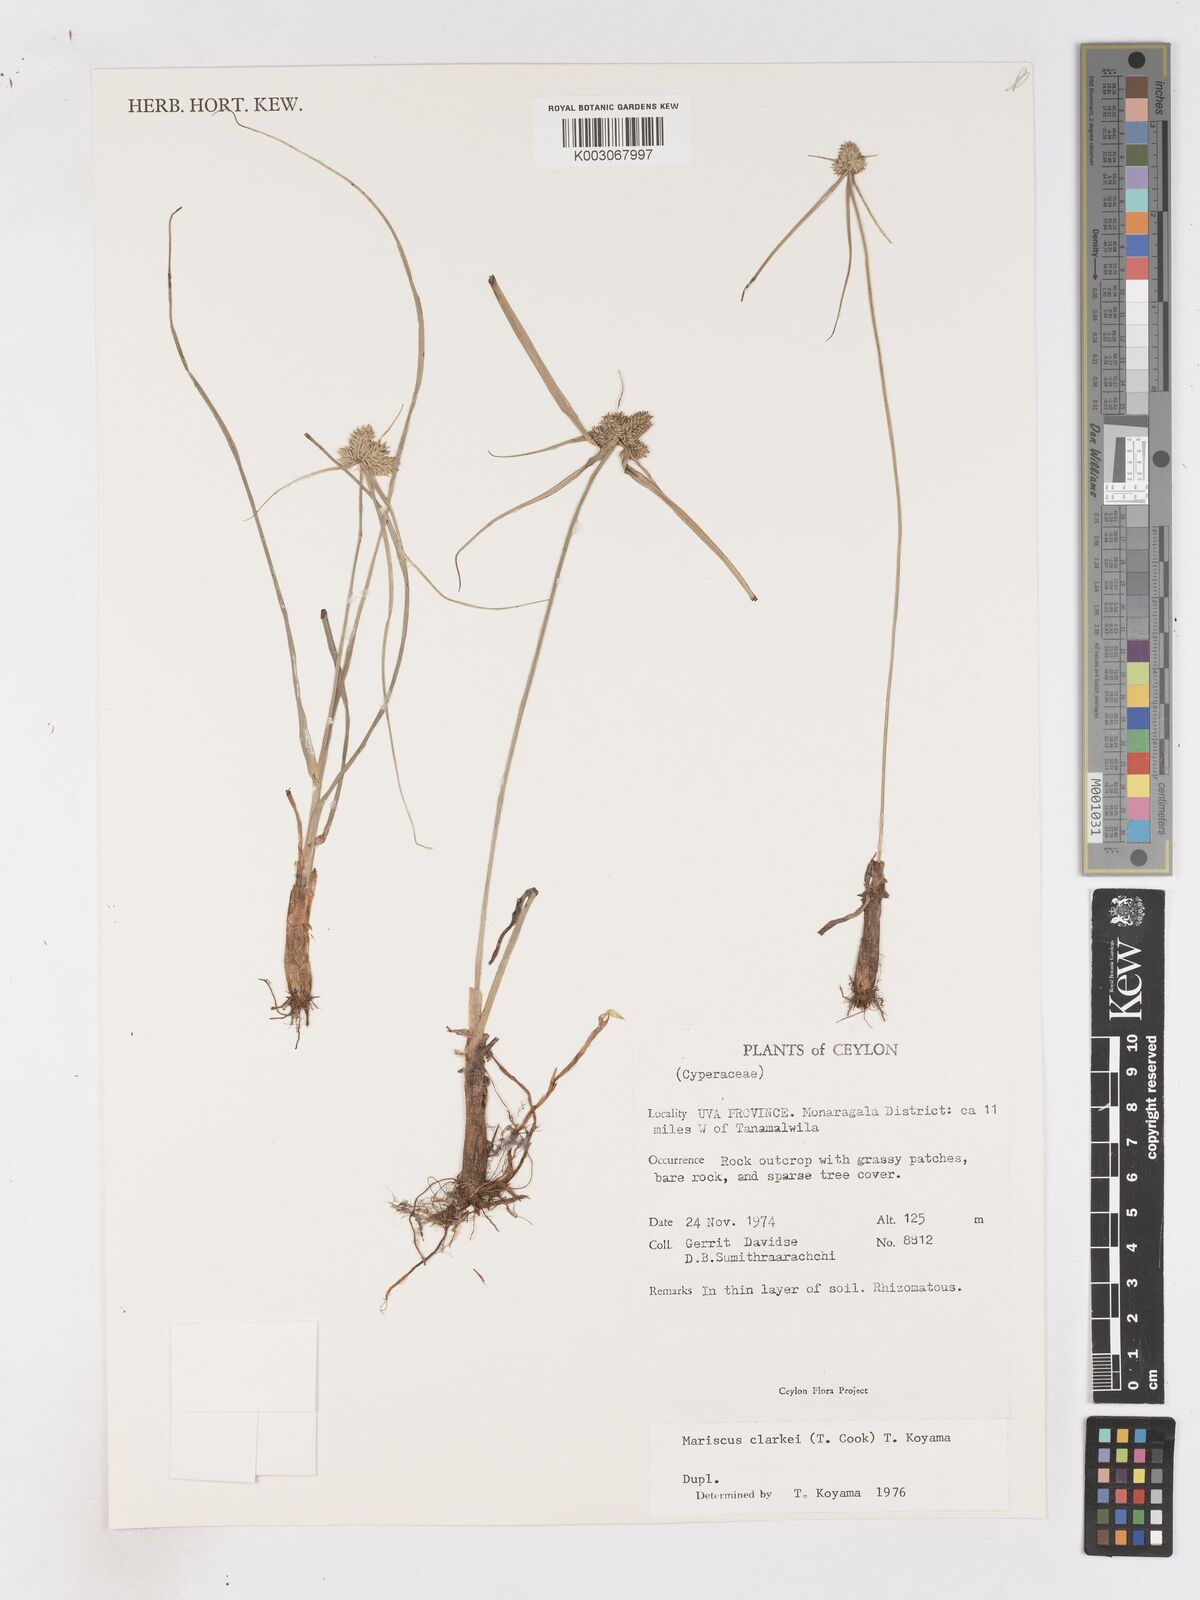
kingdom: Plantae
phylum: Tracheophyta
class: Liliopsida
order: Poales
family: Cyperaceae
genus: Cyperus
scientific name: Cyperus clarkei
